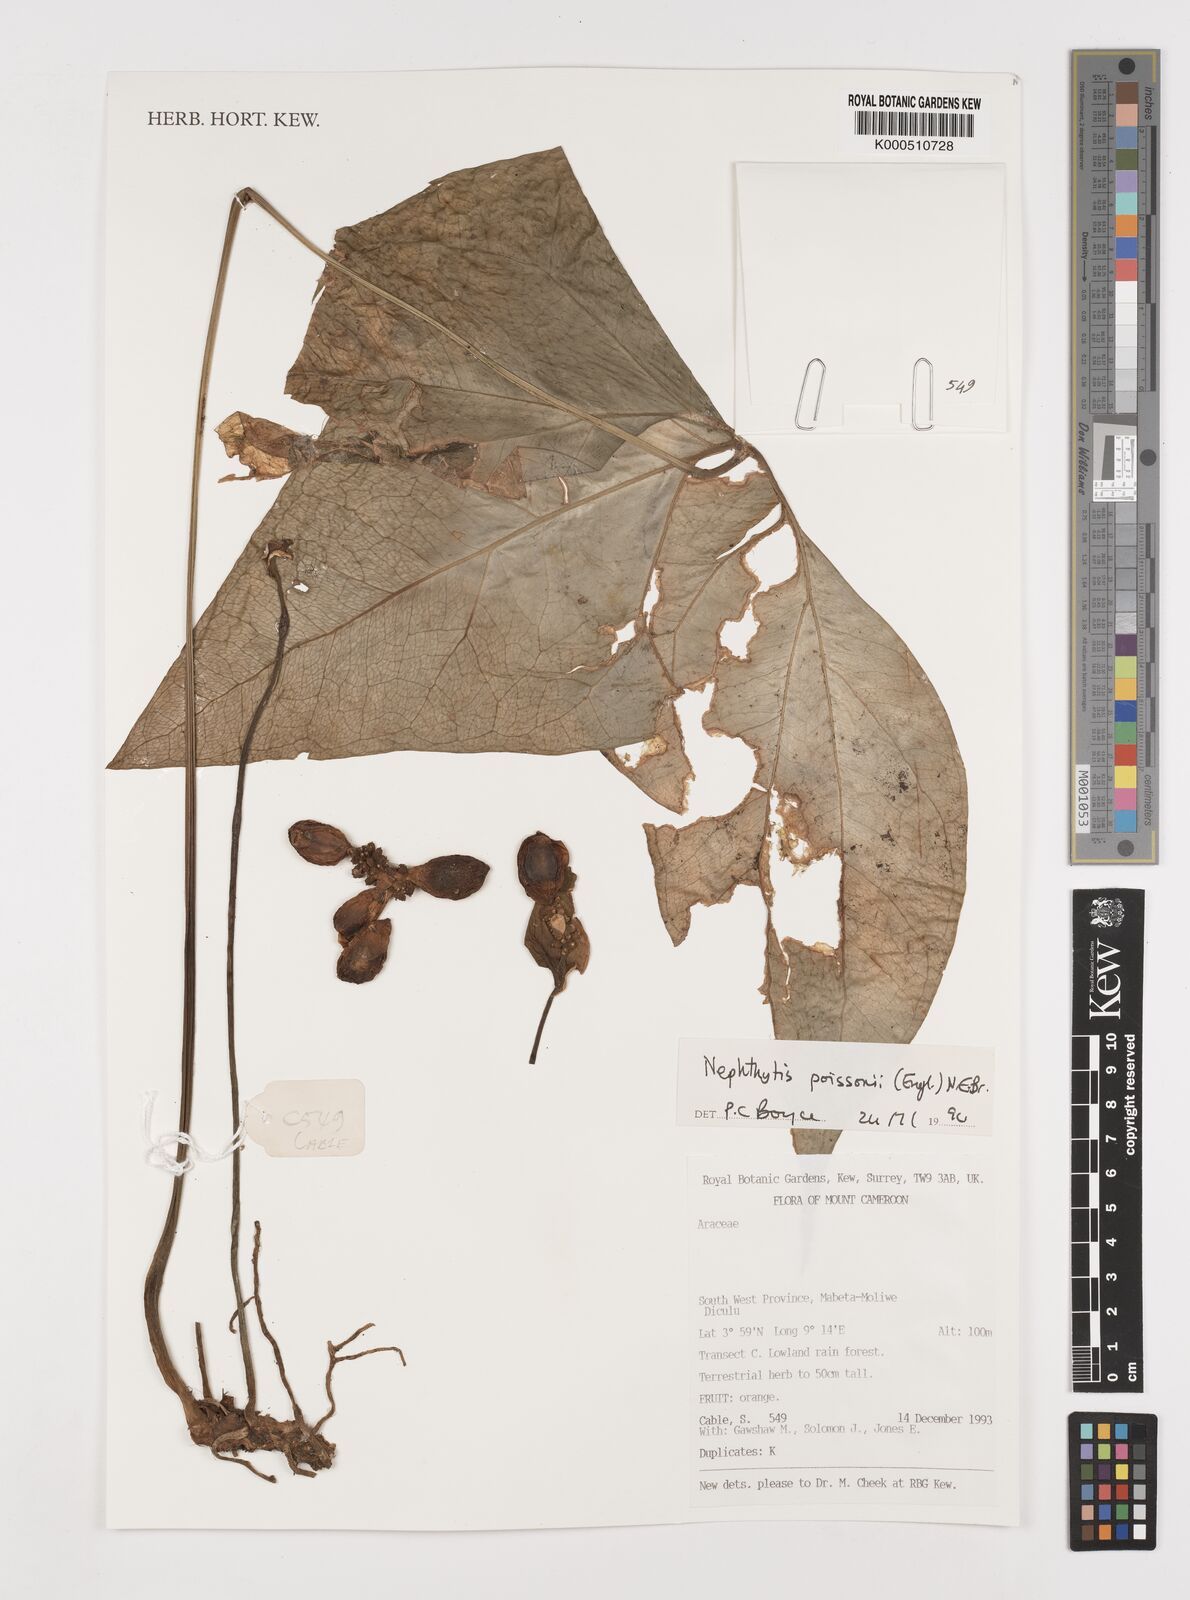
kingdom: Plantae
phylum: Tracheophyta
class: Liliopsida
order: Alismatales
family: Araceae
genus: Nephthytis
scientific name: Nephthytis poissonii
